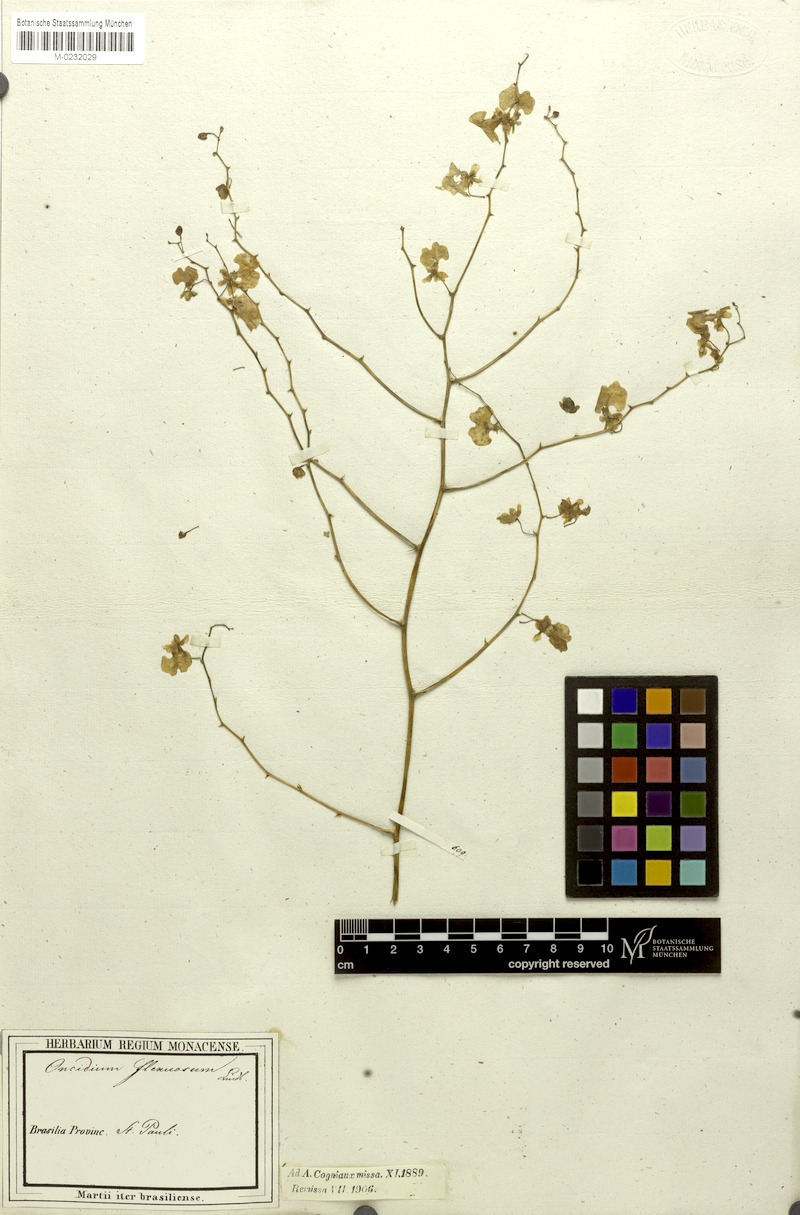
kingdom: Plantae
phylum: Tracheophyta
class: Liliopsida
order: Asparagales
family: Orchidaceae
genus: Cyrtochilum
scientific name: Cyrtochilum cimiciferum
